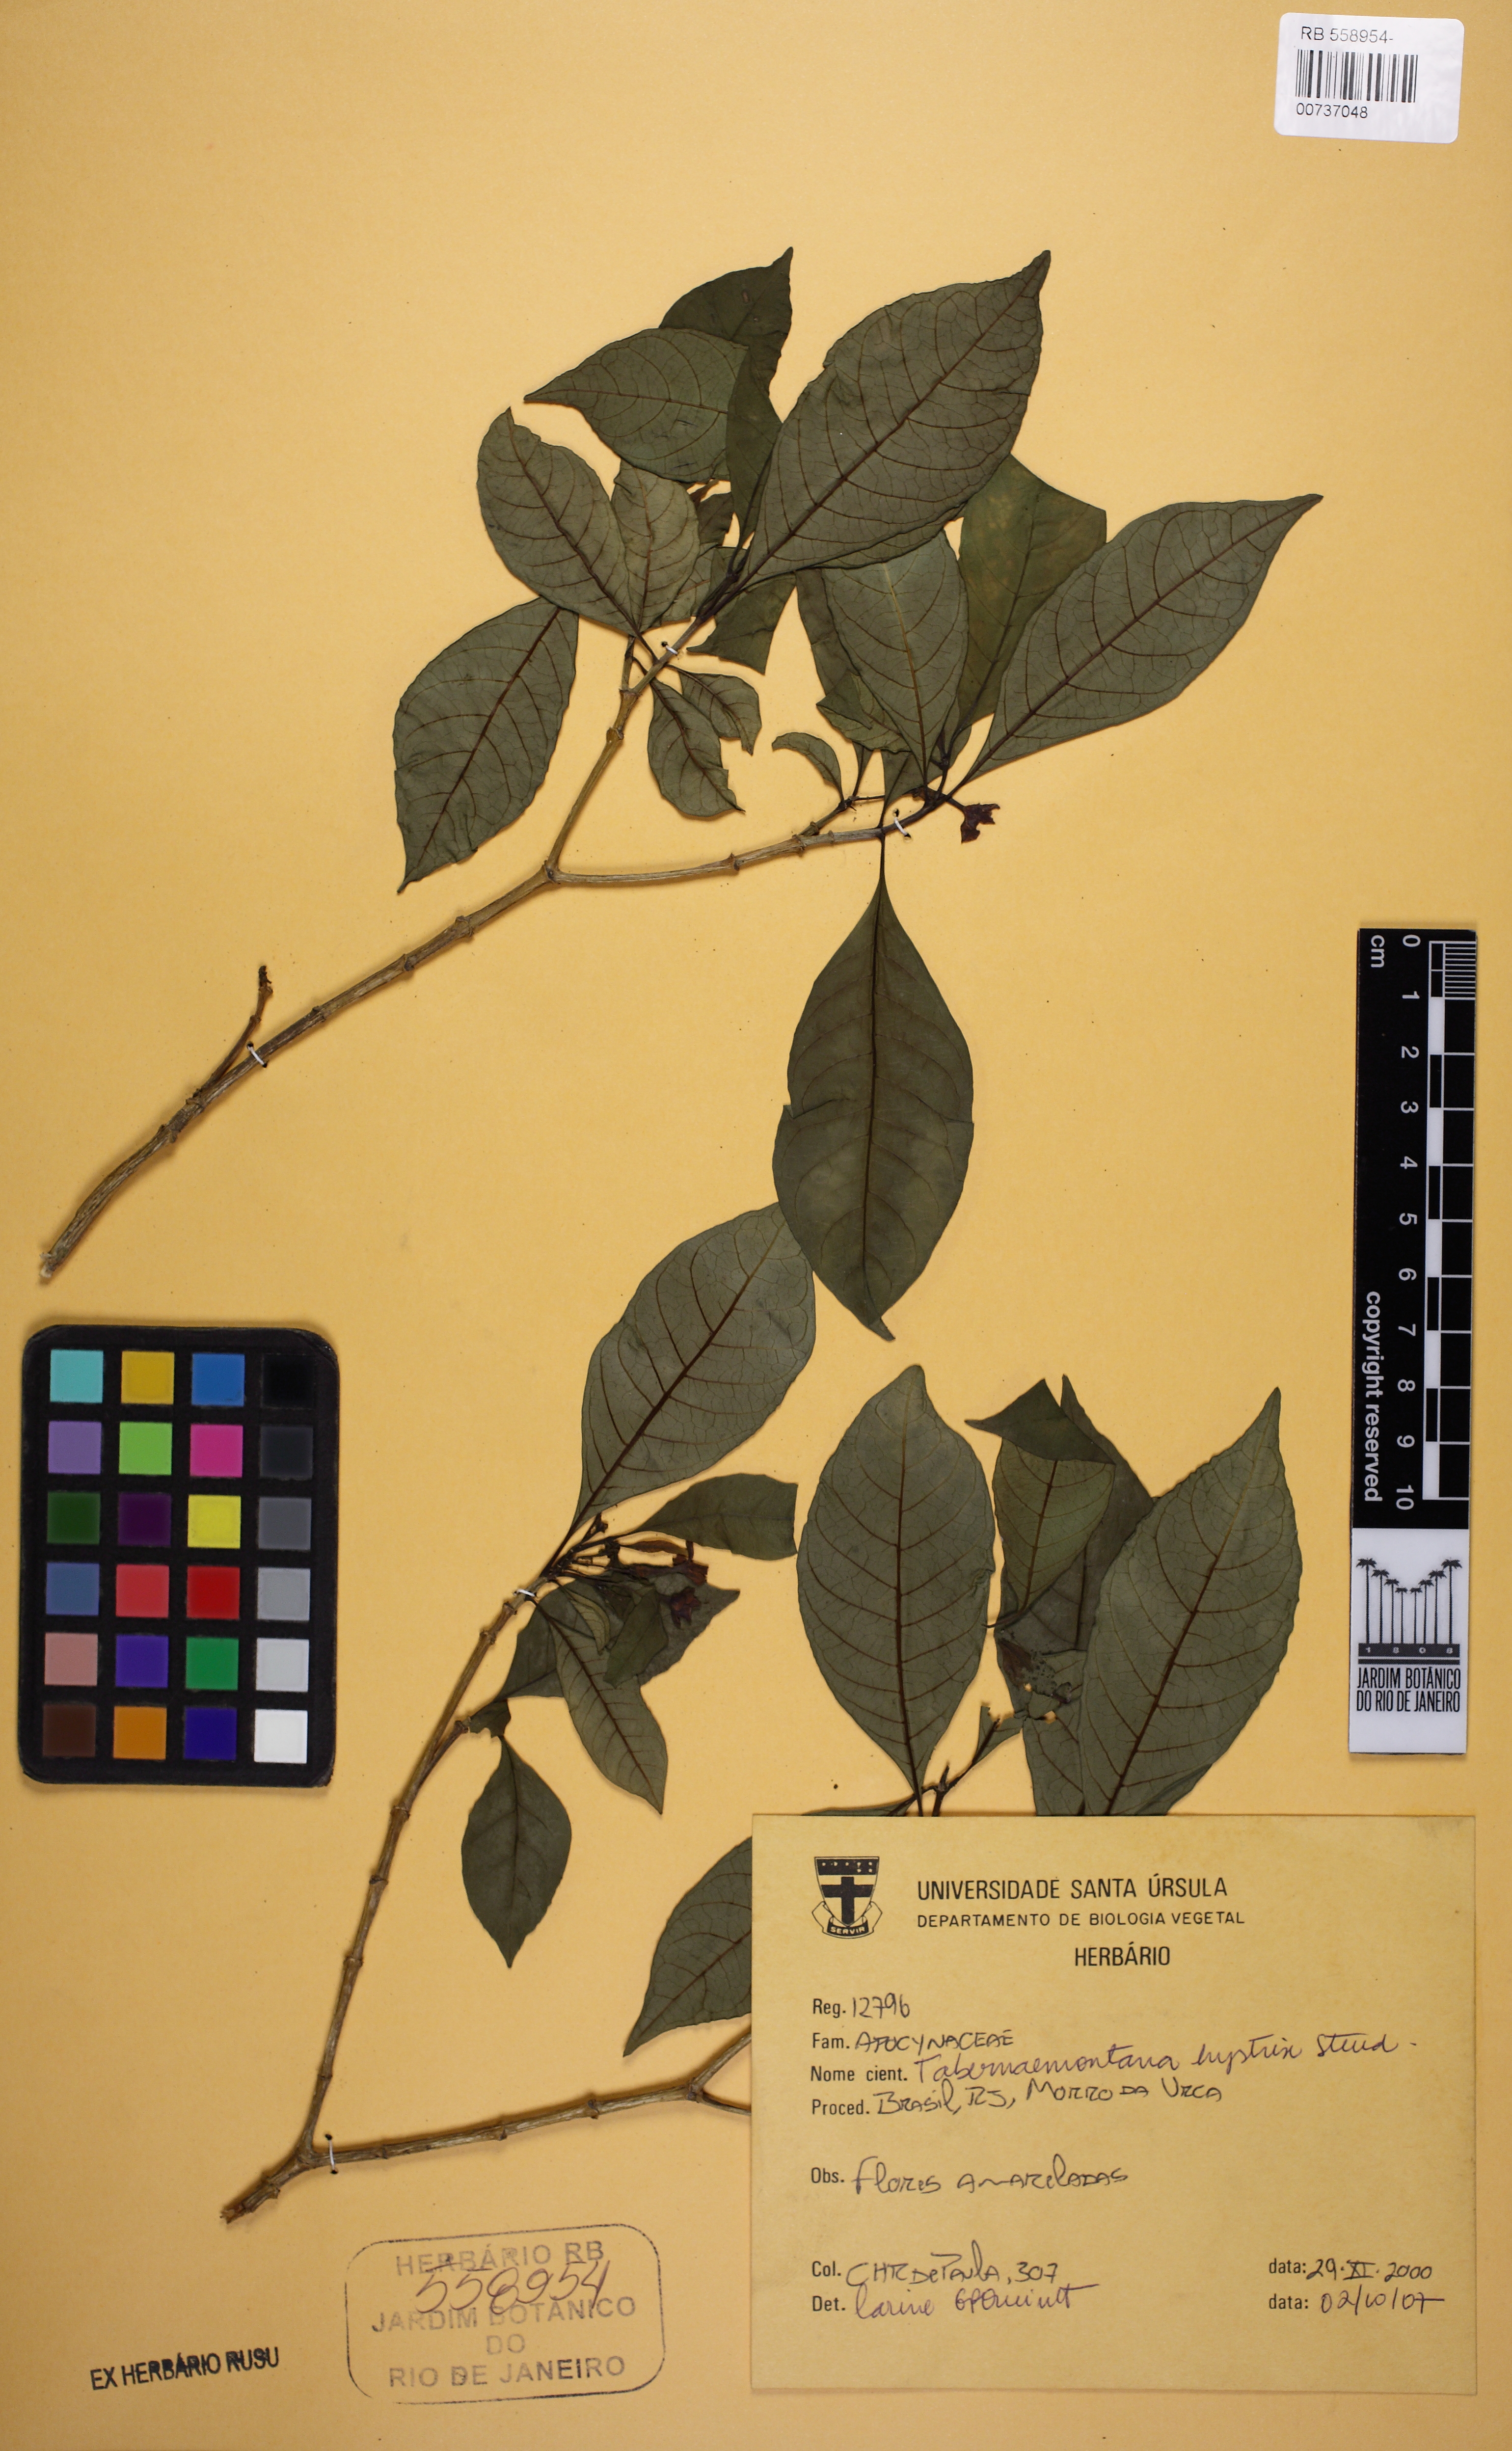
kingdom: Plantae
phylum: Tracheophyta
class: Magnoliopsida
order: Gentianales
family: Apocynaceae
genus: Tabernaemontana
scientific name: Tabernaemontana hystrix
